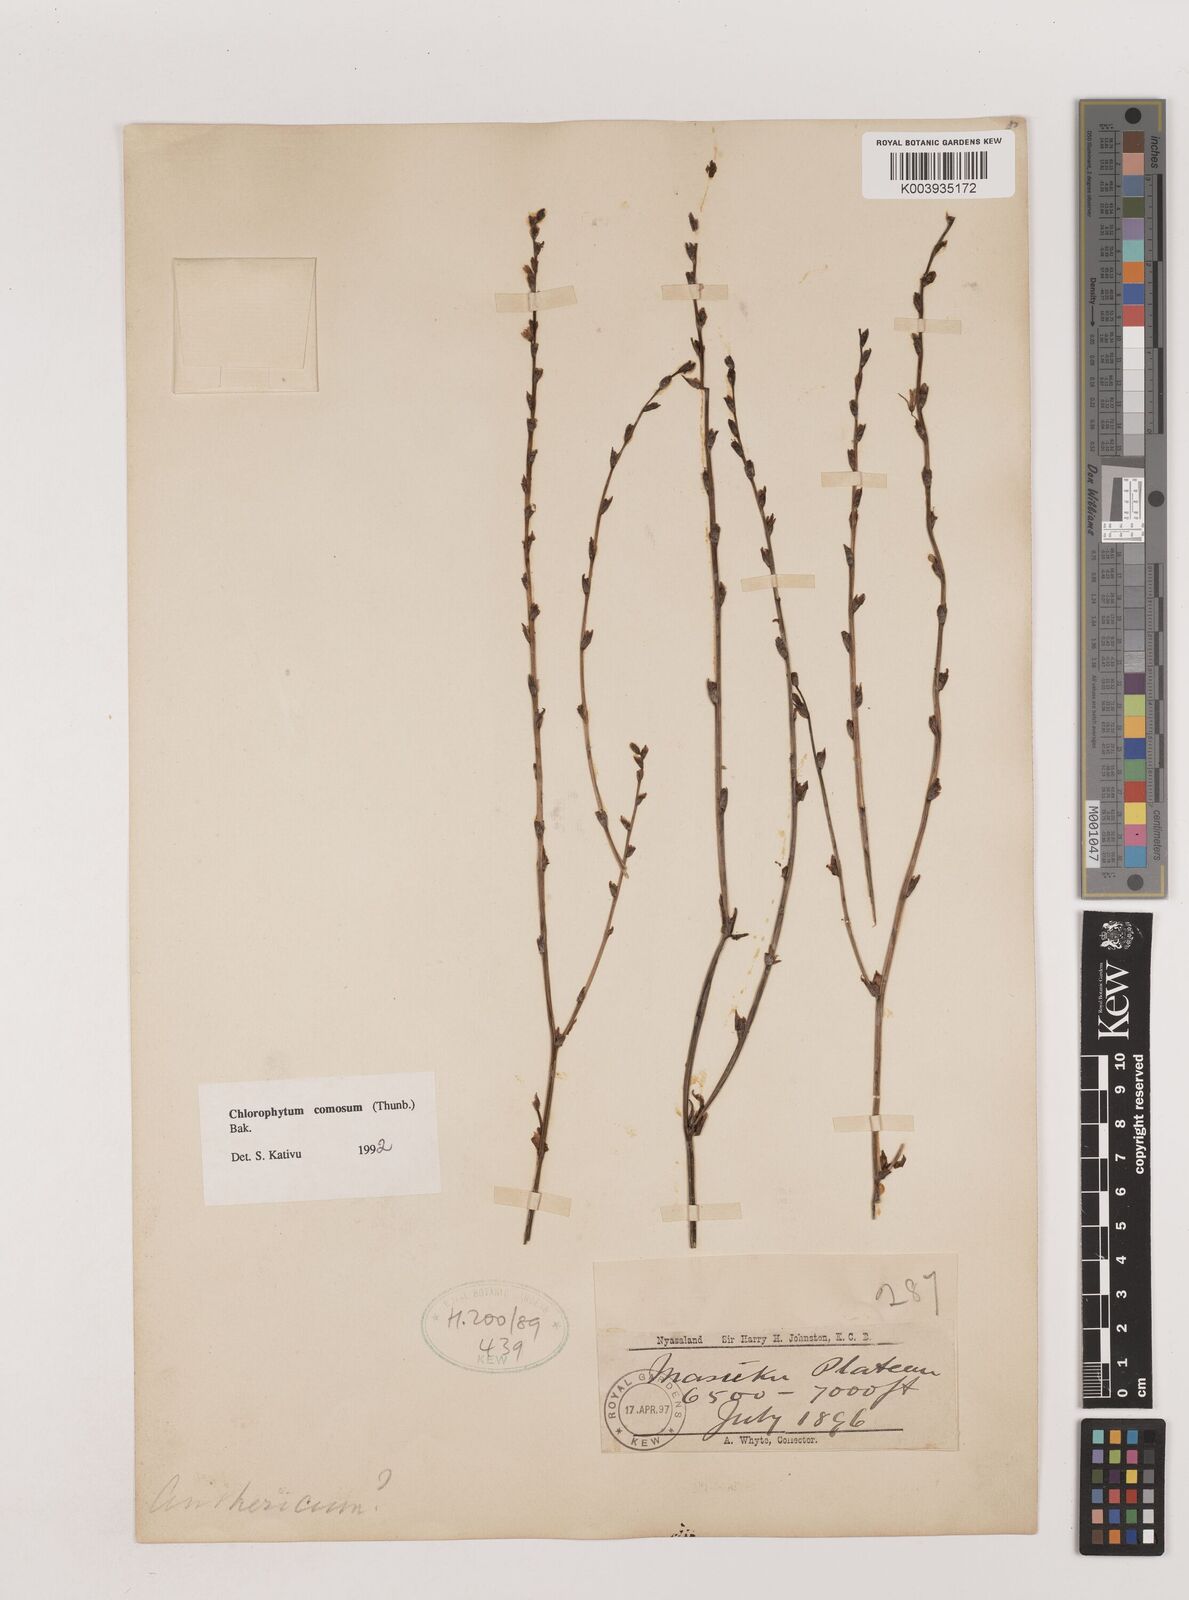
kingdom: Plantae
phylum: Tracheophyta
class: Liliopsida
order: Asparagales
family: Asparagaceae
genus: Chlorophytum
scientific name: Chlorophytum comosum
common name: Spider plant
